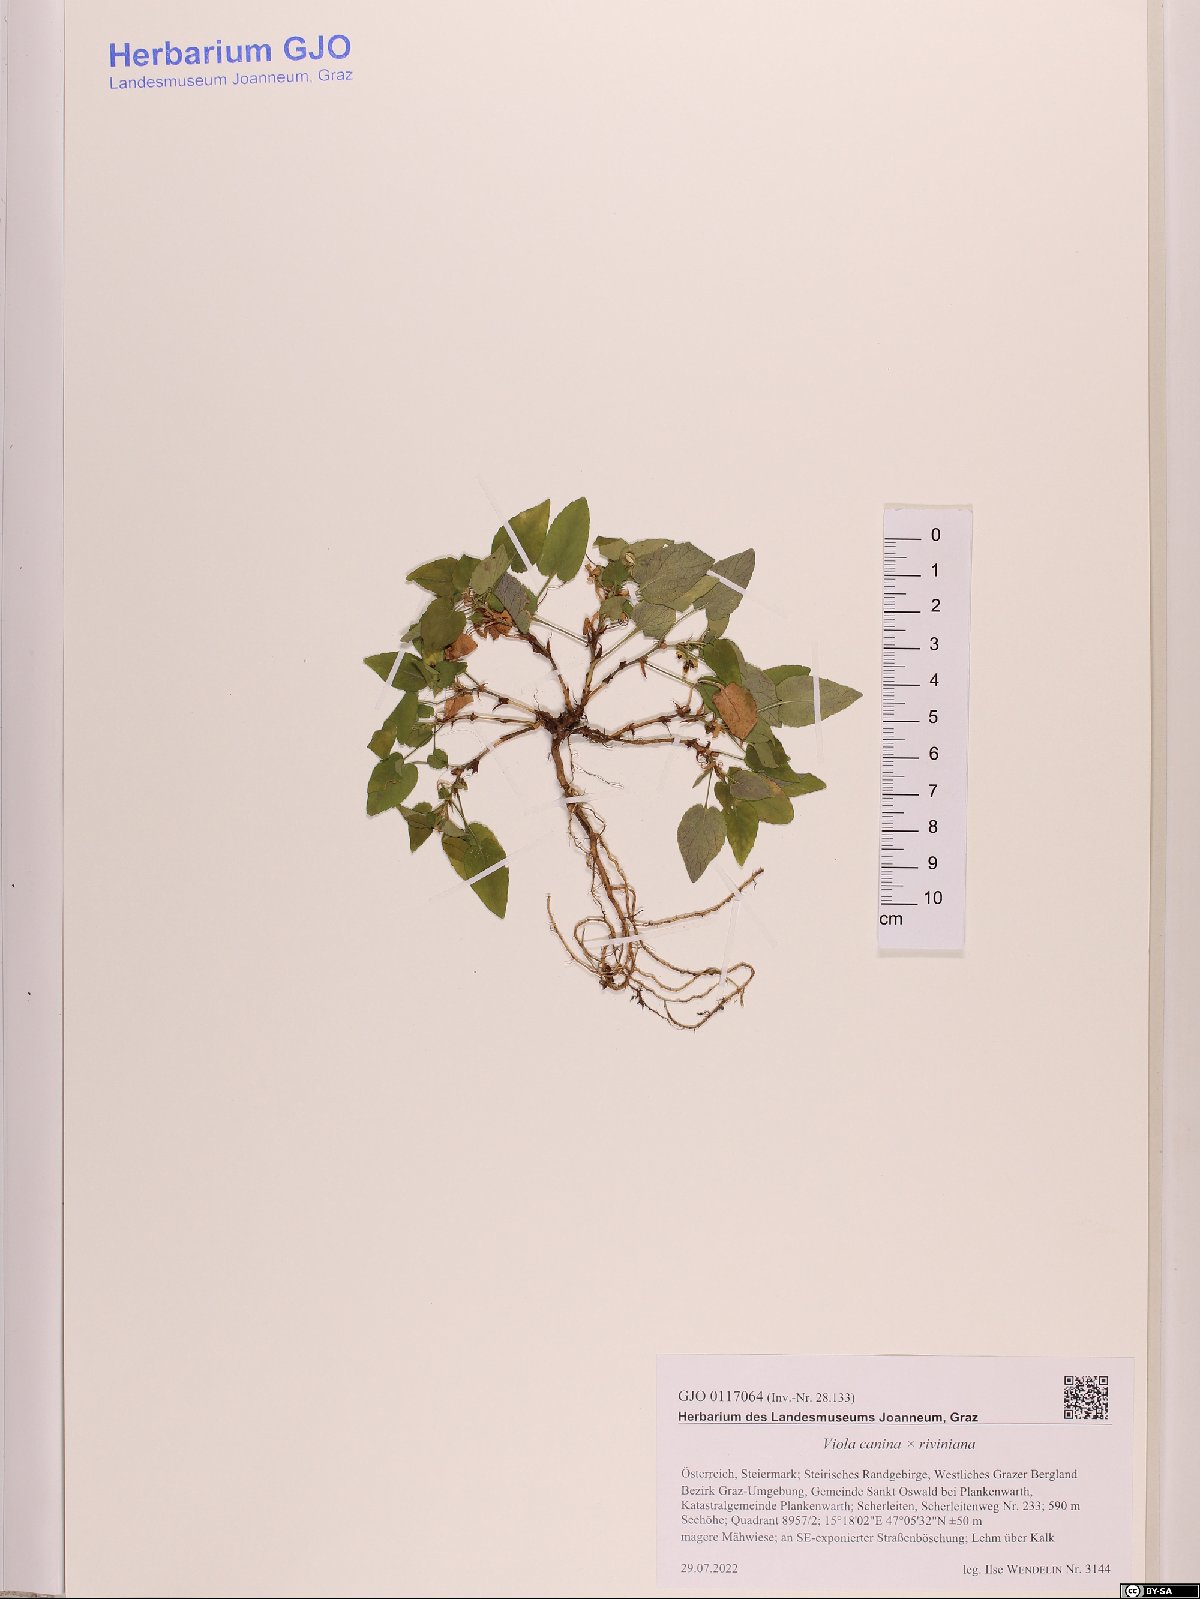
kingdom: Plantae
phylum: Tracheophyta
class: Magnoliopsida
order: Malpighiales
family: Violaceae
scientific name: Violaceae
